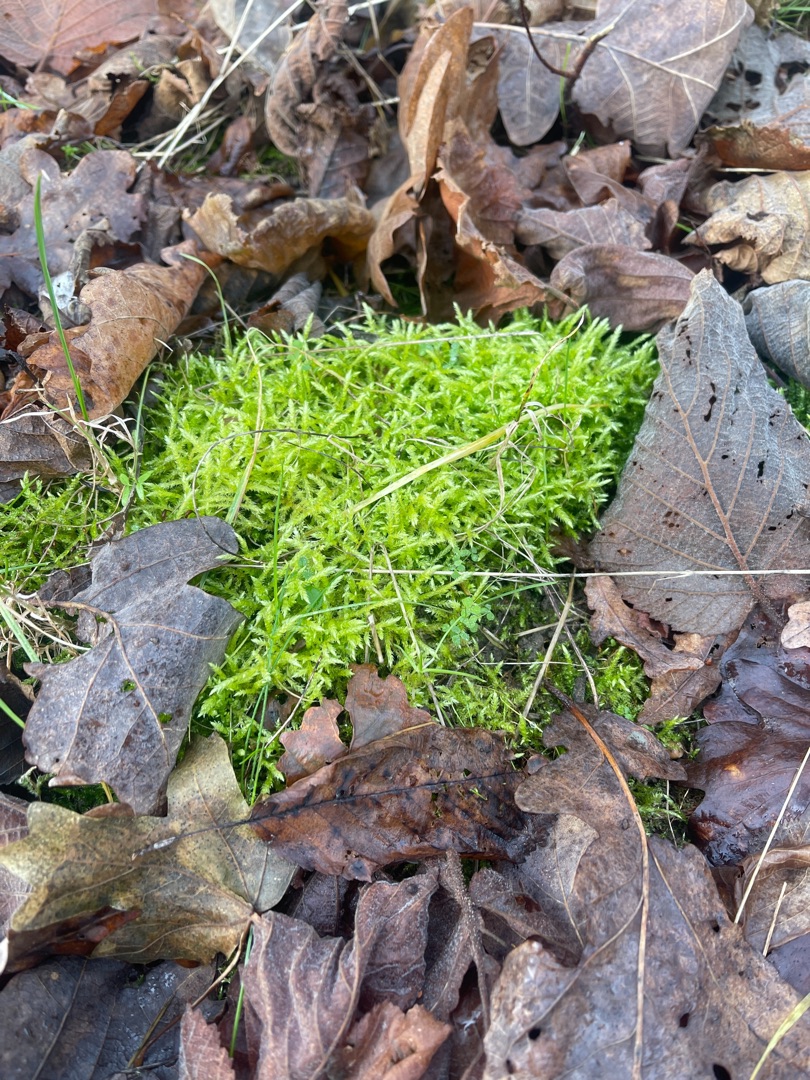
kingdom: Plantae
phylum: Bryophyta
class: Bryopsida
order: Hypnales
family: Brachytheciaceae
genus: Brachythecium
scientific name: Brachythecium
